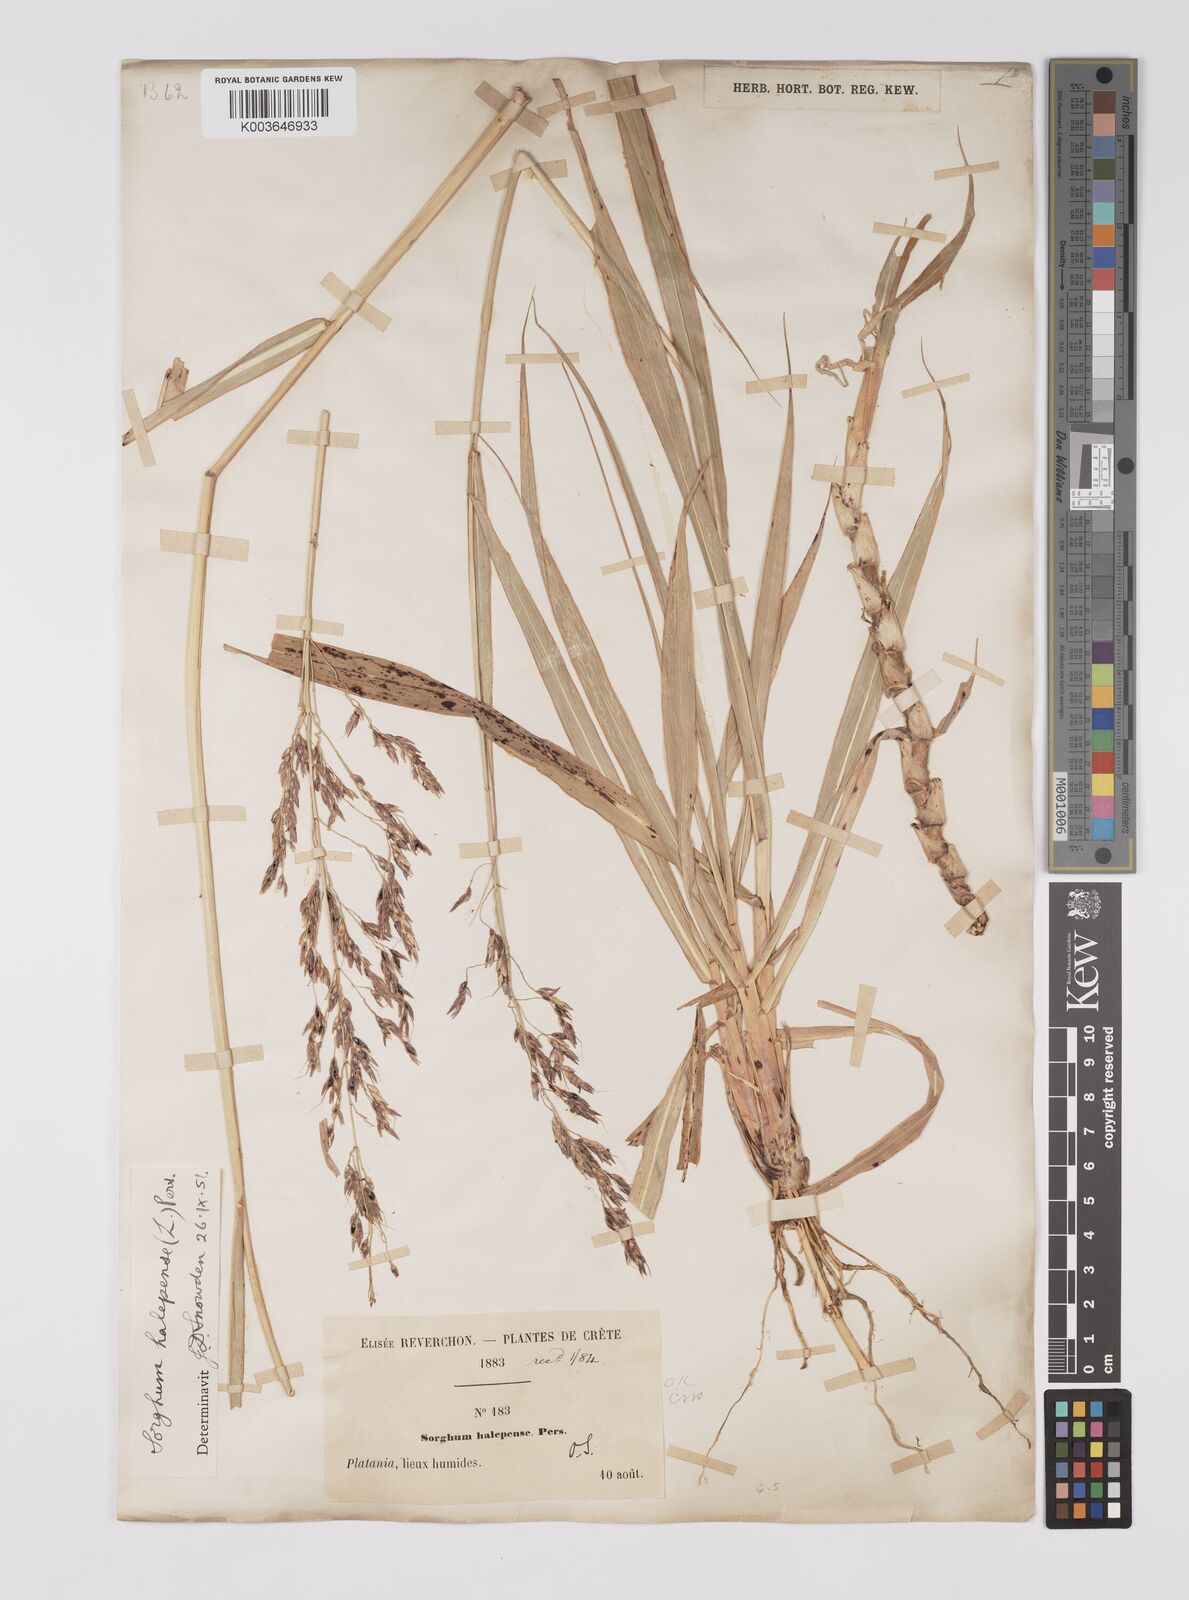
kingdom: Plantae
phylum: Tracheophyta
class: Liliopsida
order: Poales
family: Poaceae
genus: Sorghum
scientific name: Sorghum halepense
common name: Johnson-grass
